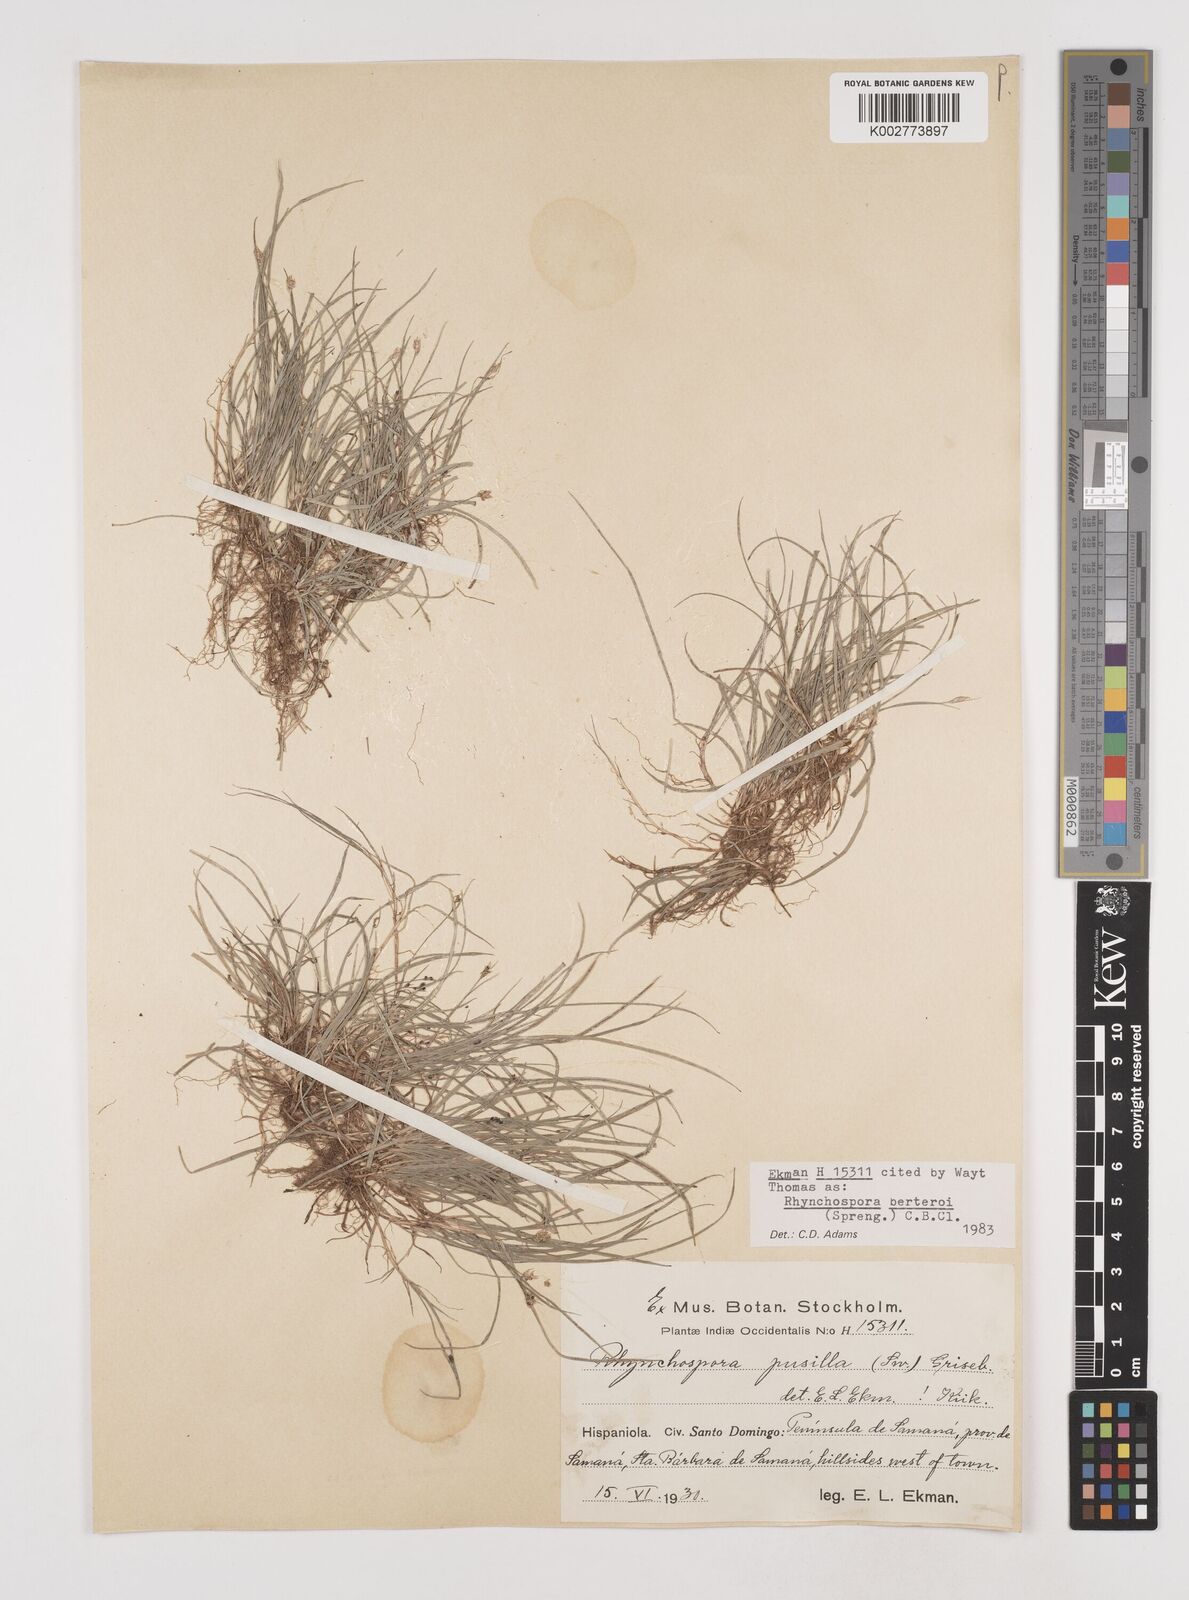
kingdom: Plantae
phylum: Tracheophyta
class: Liliopsida
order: Poales
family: Cyperaceae
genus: Rhynchospora
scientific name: Rhynchospora berteroi
